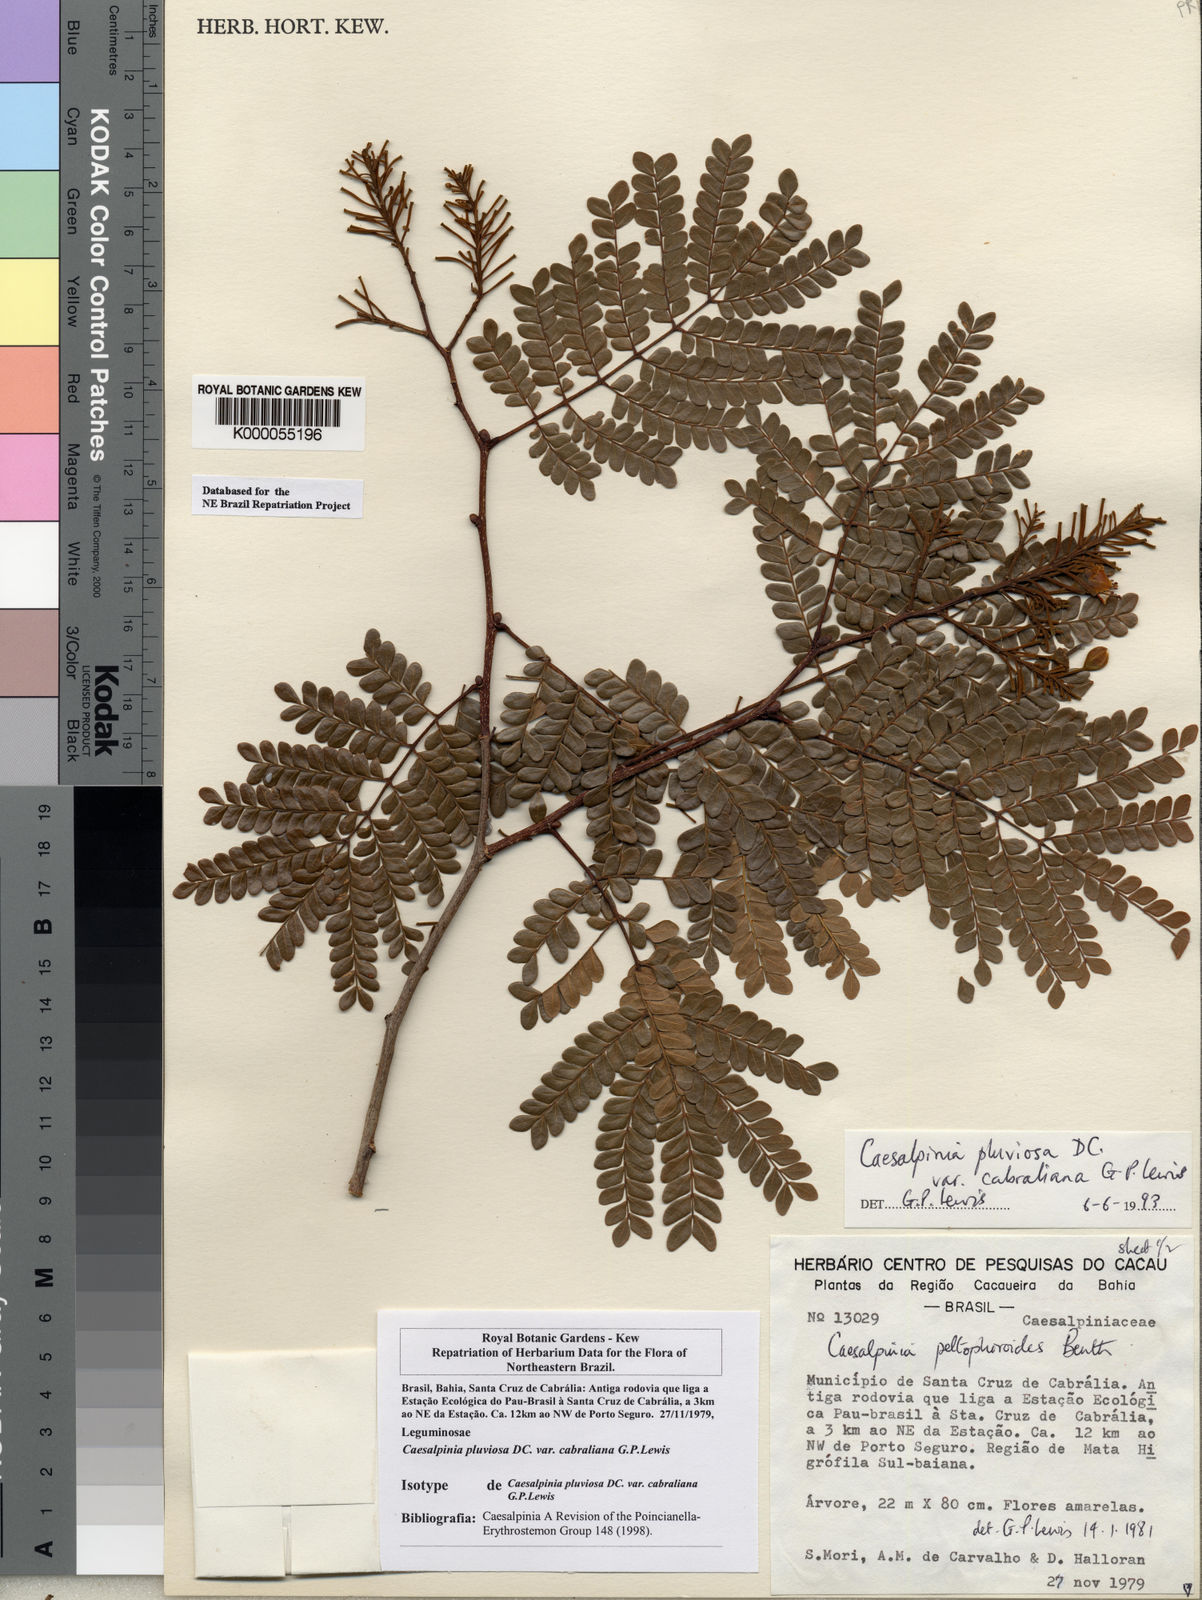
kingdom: Plantae
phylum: Tracheophyta
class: Magnoliopsida
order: Fabales
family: Fabaceae
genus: Cenostigma
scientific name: Cenostigma pluviosum
